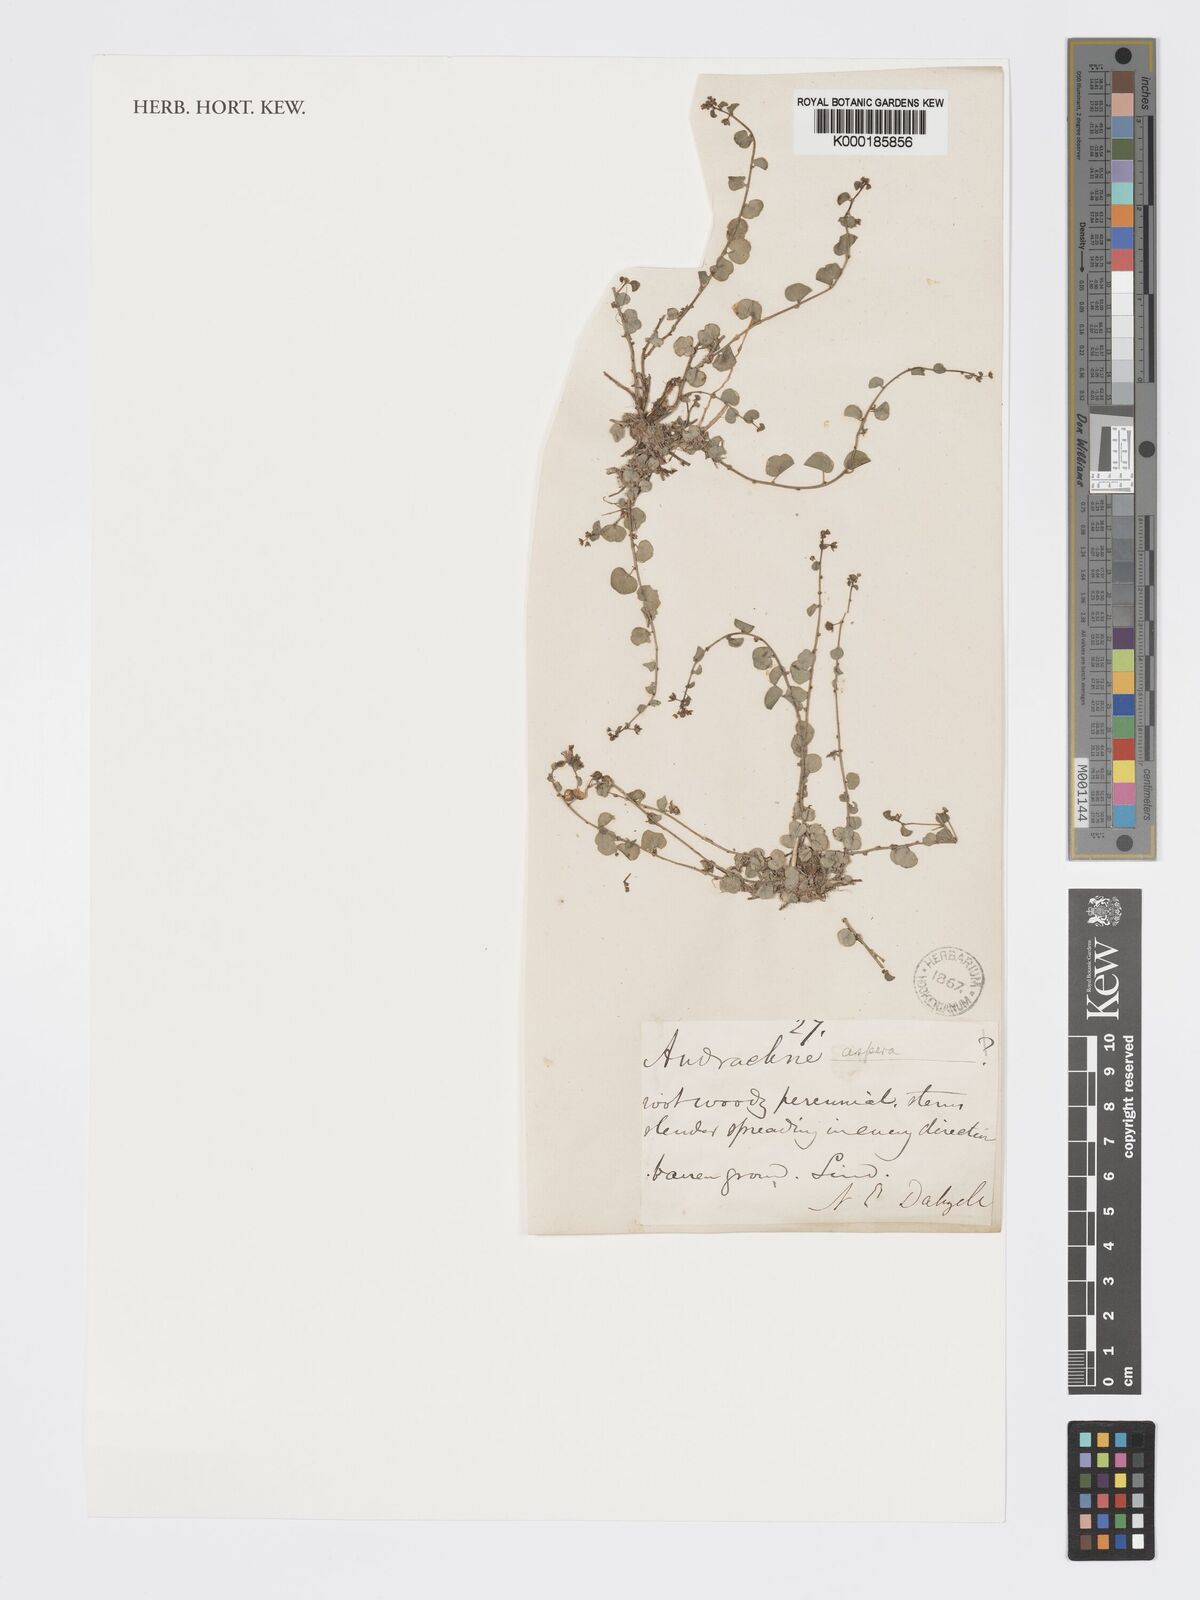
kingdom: Plantae
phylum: Tracheophyta
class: Magnoliopsida
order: Malpighiales
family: Phyllanthaceae
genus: Andrachne
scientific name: Andrachne aspera
